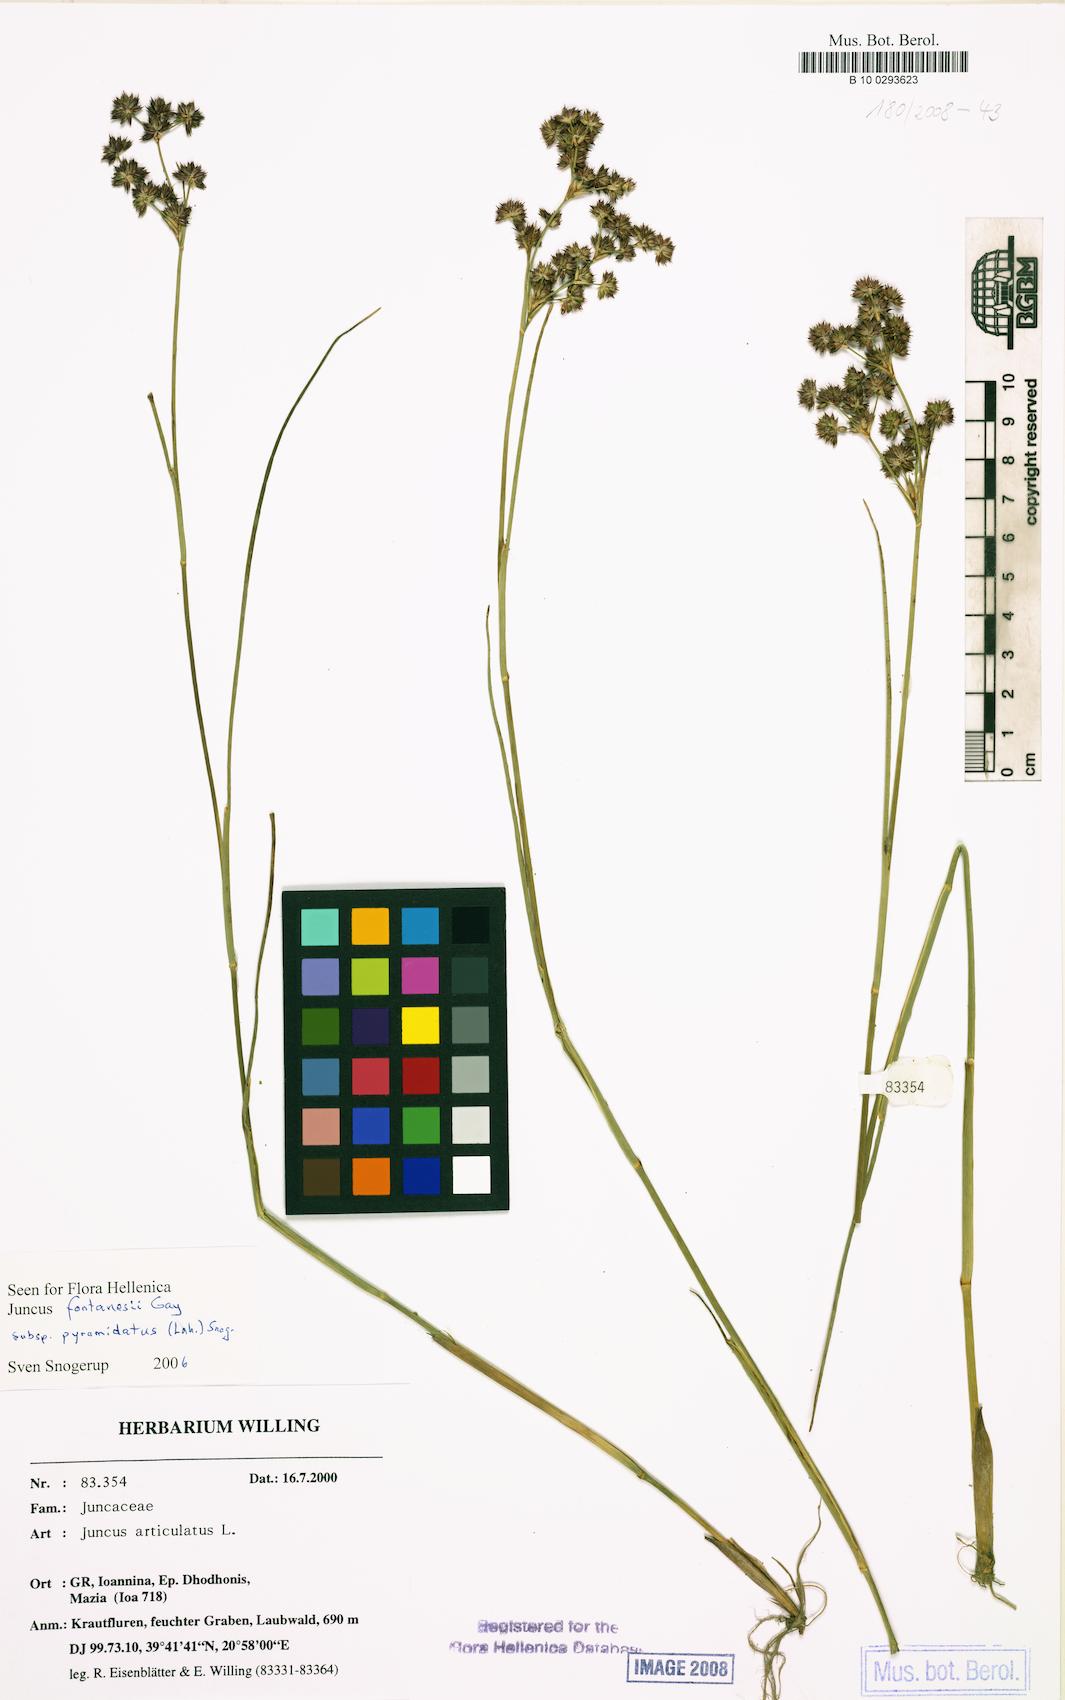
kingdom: Plantae
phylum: Tracheophyta
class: Liliopsida
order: Poales
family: Juncaceae
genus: Juncus
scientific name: Juncus articulatus
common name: Jointed rush
